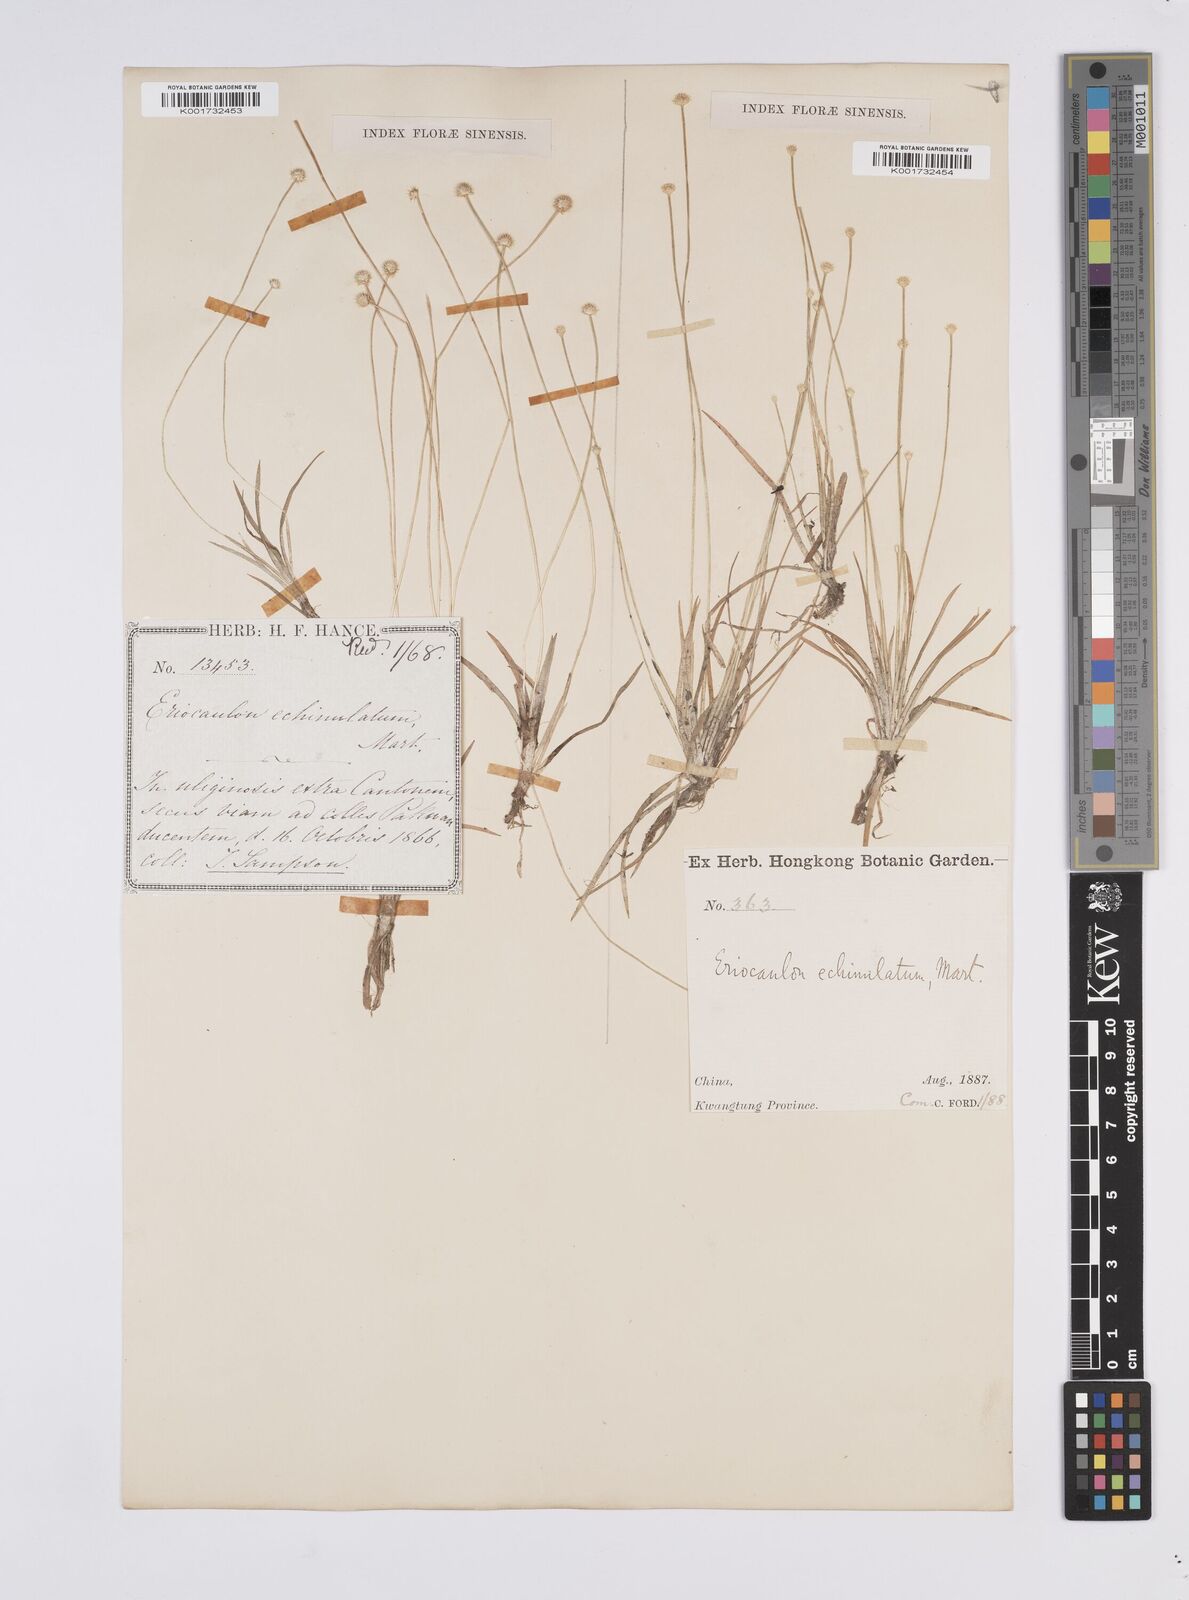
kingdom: Plantae
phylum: Tracheophyta
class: Liliopsida
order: Poales
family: Eriocaulaceae
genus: Eriocaulon
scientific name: Eriocaulon echinulatum
